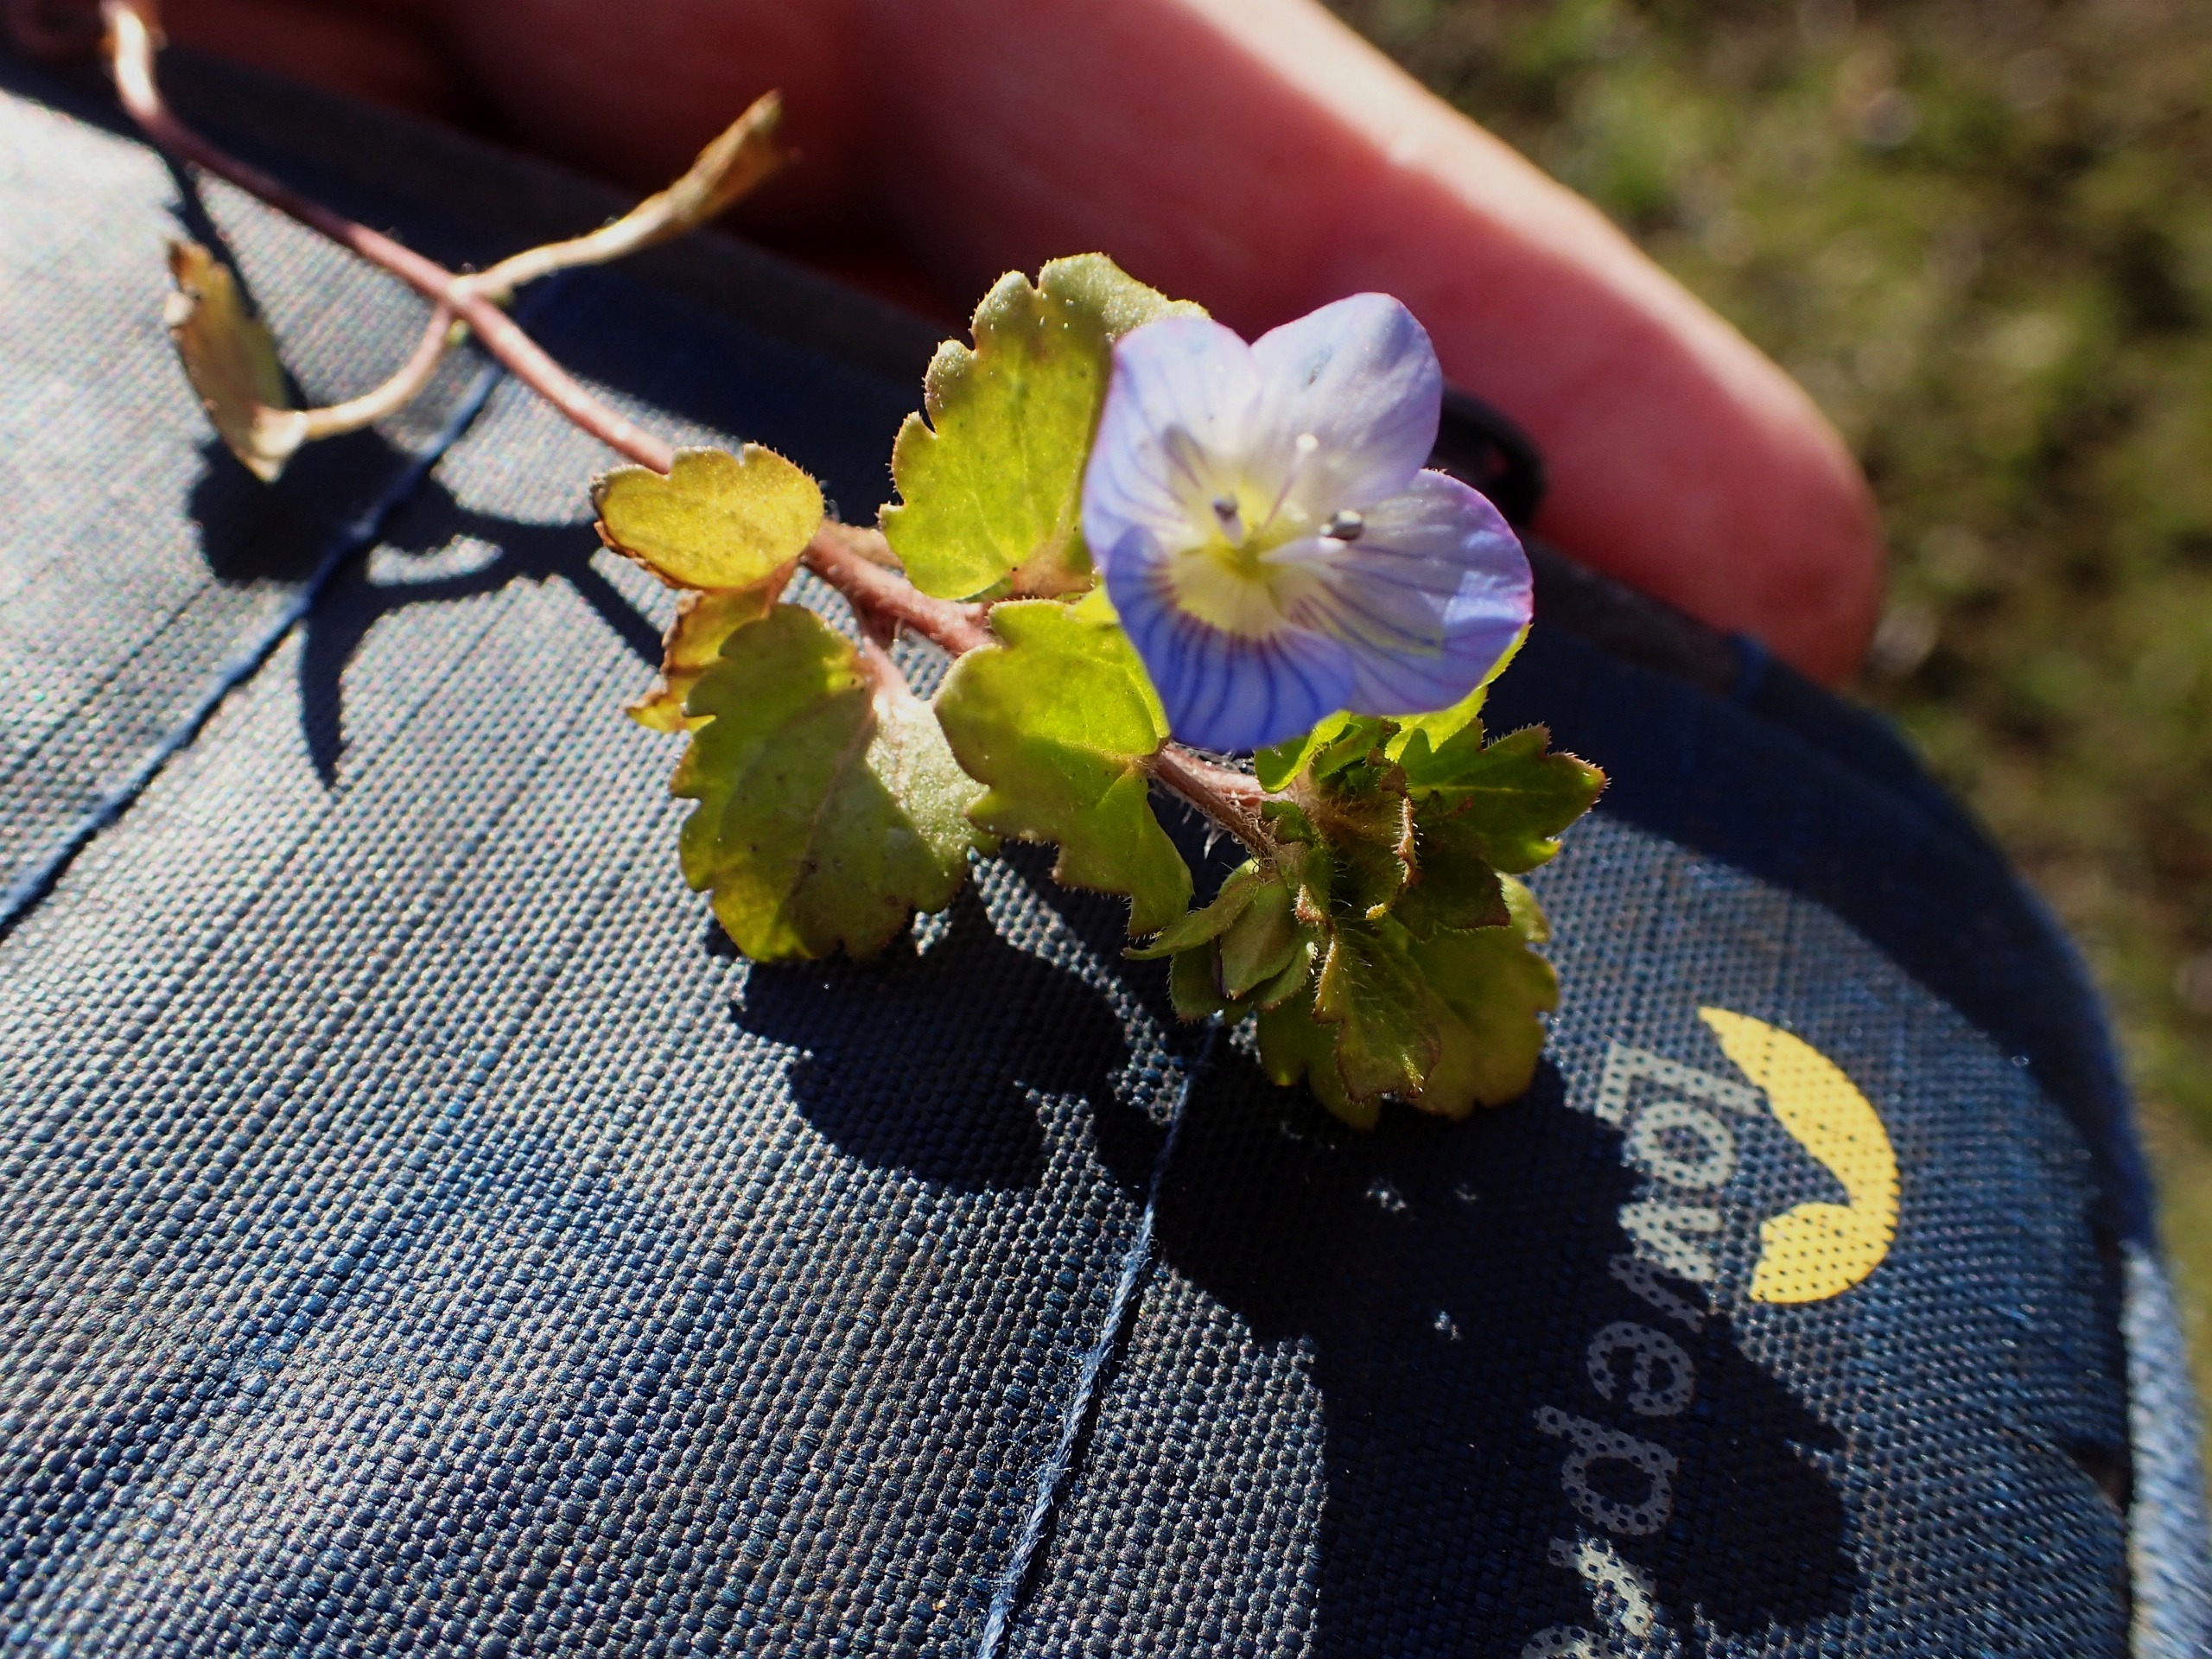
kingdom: Plantae
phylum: Tracheophyta
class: Magnoliopsida
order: Lamiales
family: Plantaginaceae
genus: Veronica
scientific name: Veronica persica
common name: Storkronet ærenpris
